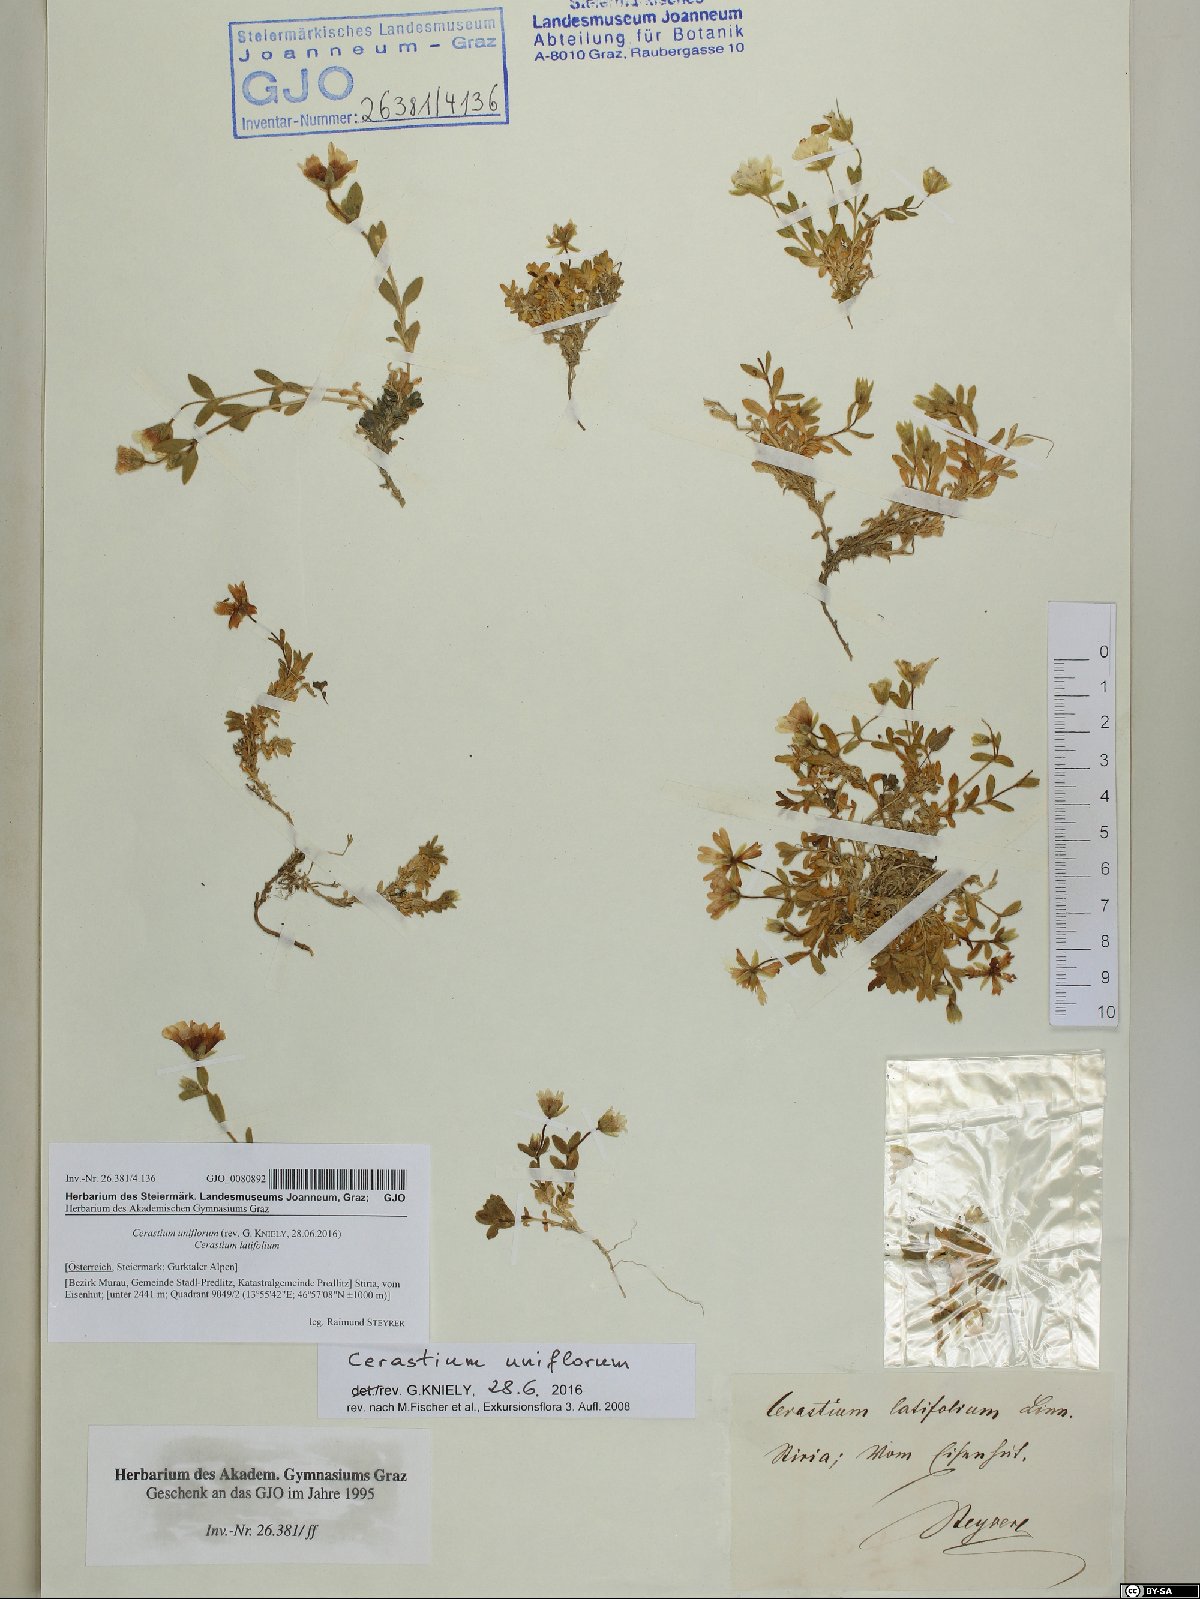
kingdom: Plantae
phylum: Tracheophyta
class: Magnoliopsida
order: Caryophyllales
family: Caryophyllaceae
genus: Cerastium
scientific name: Cerastium uniflorum
